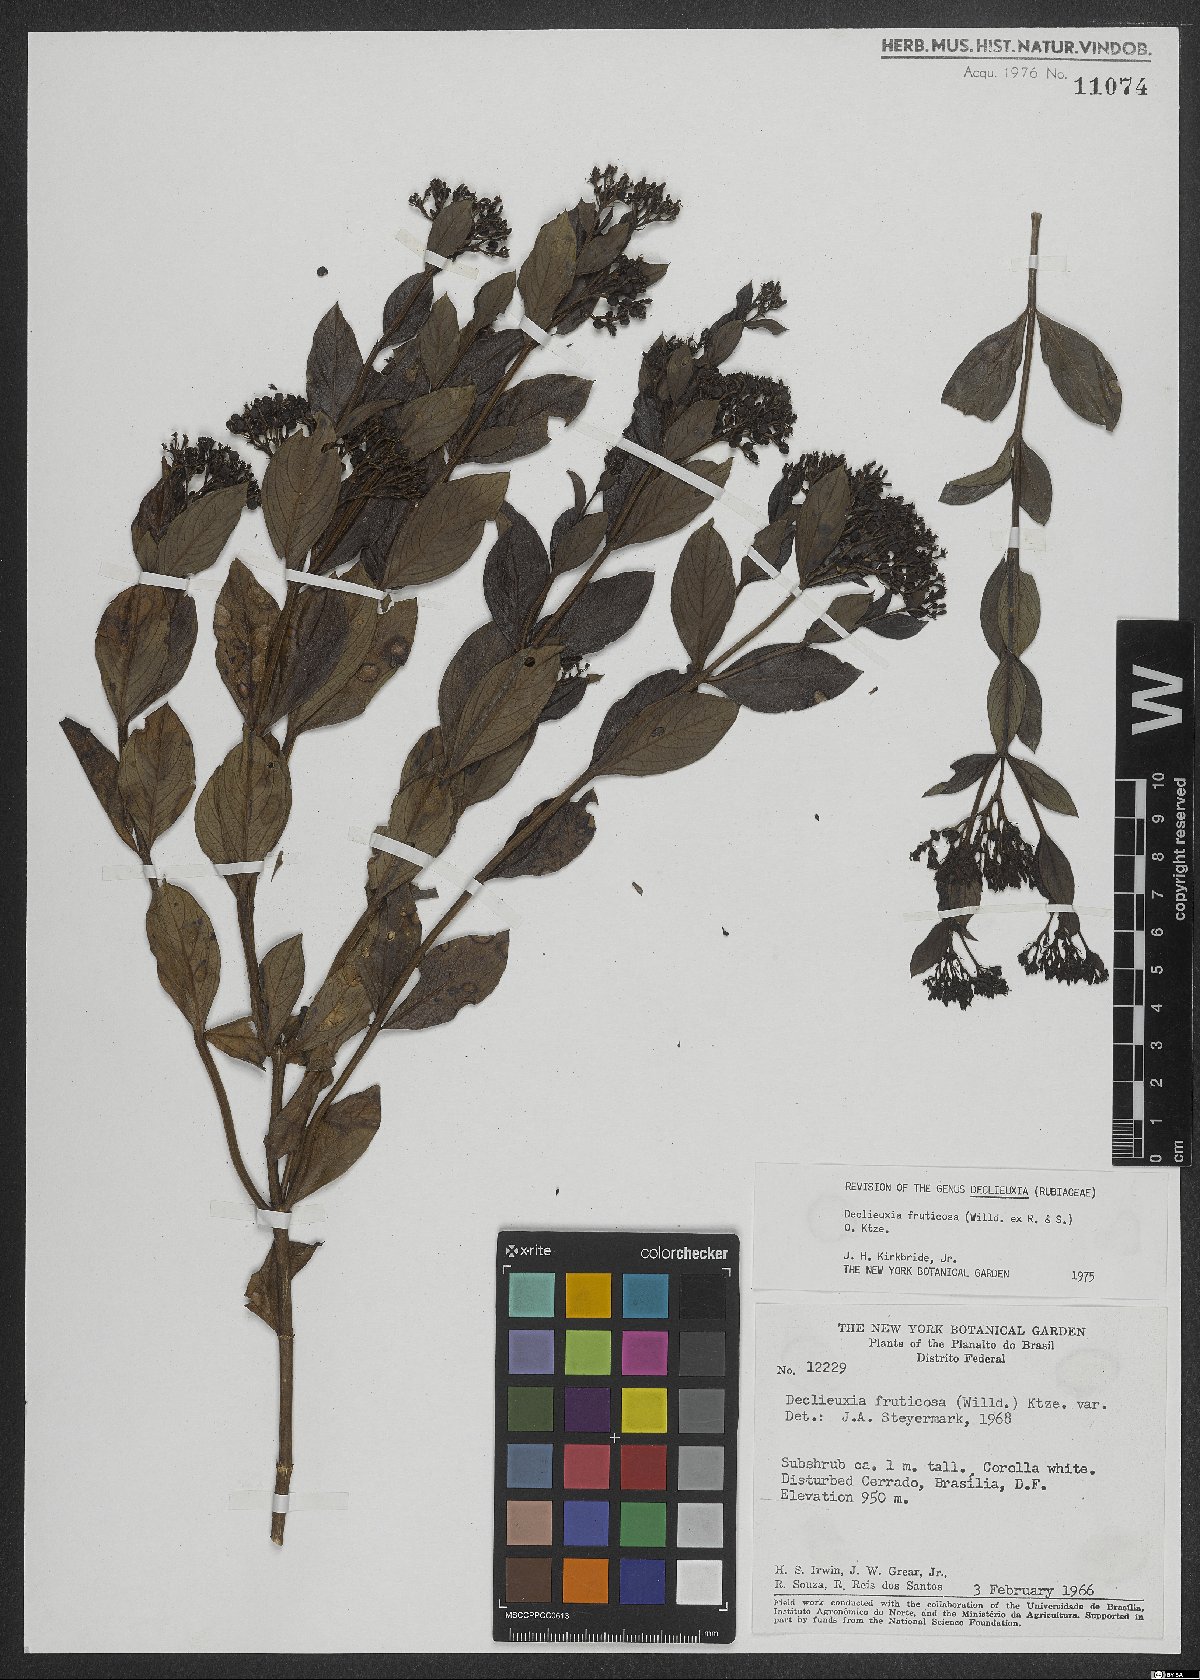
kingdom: Plantae
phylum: Tracheophyta
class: Magnoliopsida
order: Gentianales
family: Rubiaceae
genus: Declieuxia
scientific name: Declieuxia fruticosa
